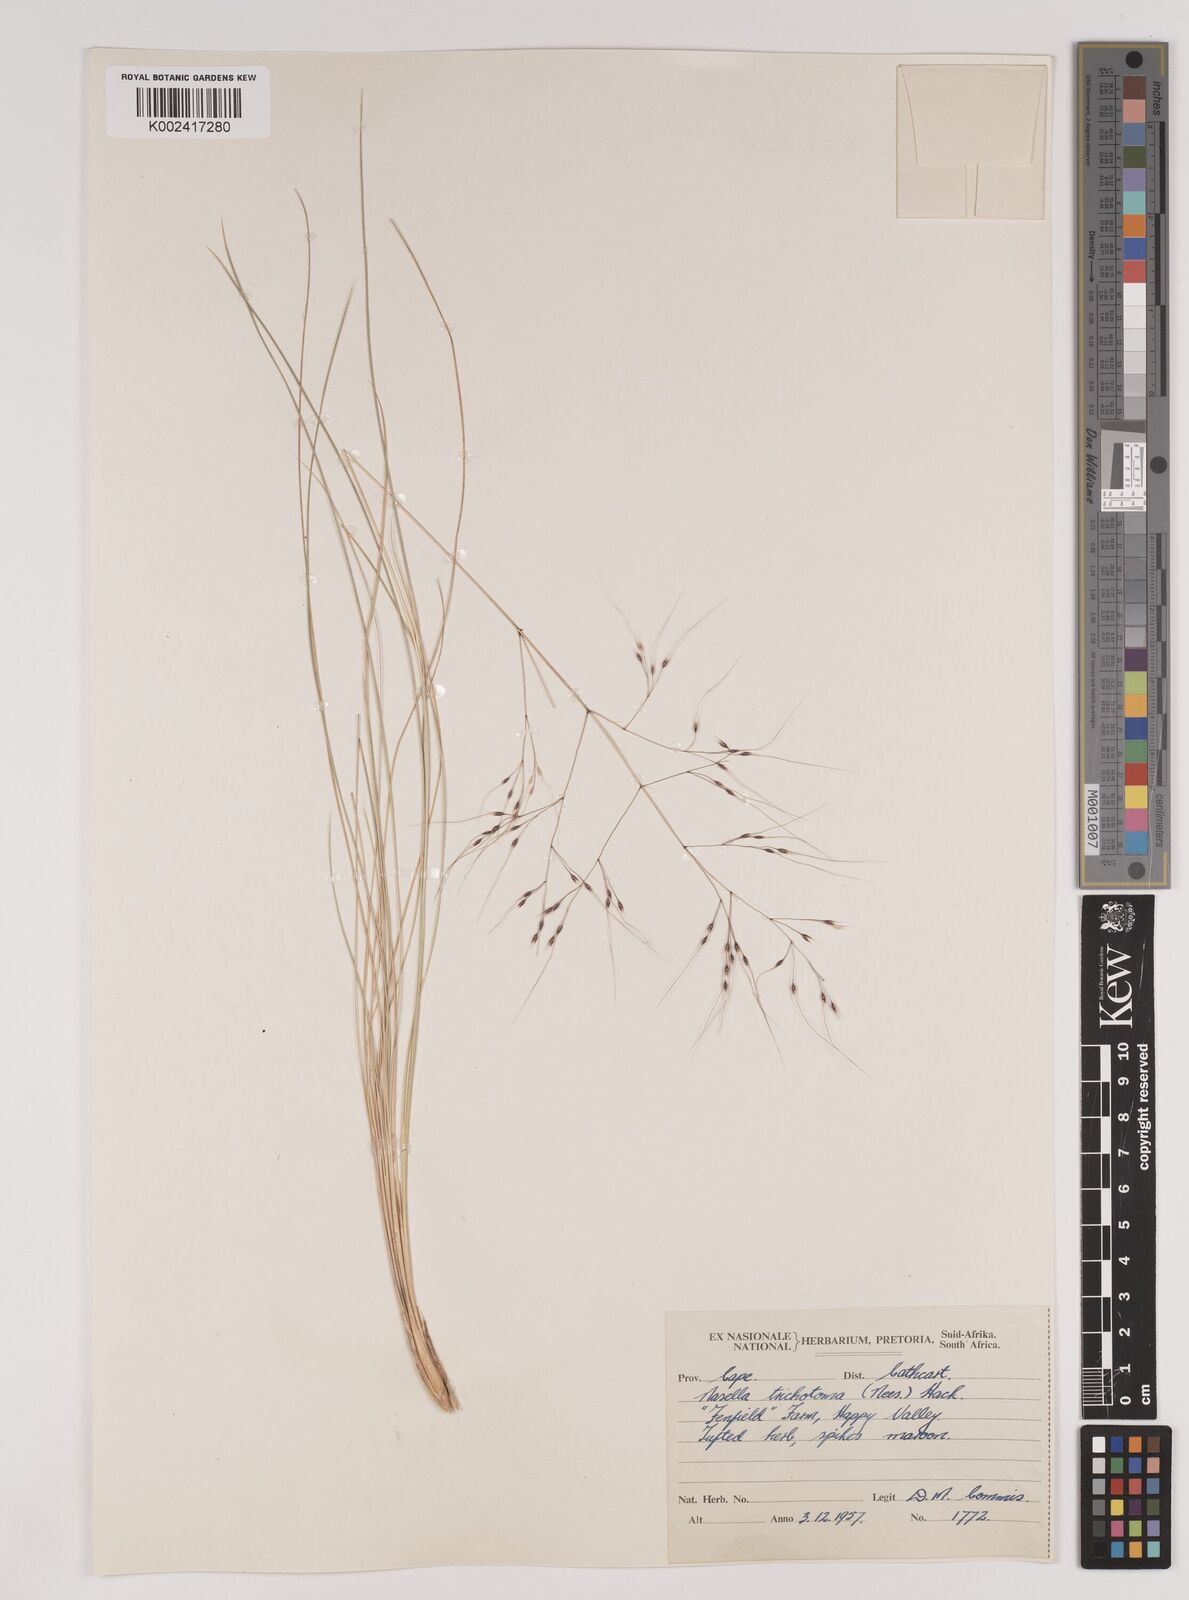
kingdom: Plantae
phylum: Tracheophyta
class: Liliopsida
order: Poales
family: Poaceae
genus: Nassella
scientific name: Nassella trichotoma
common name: Serrated tussock grass
